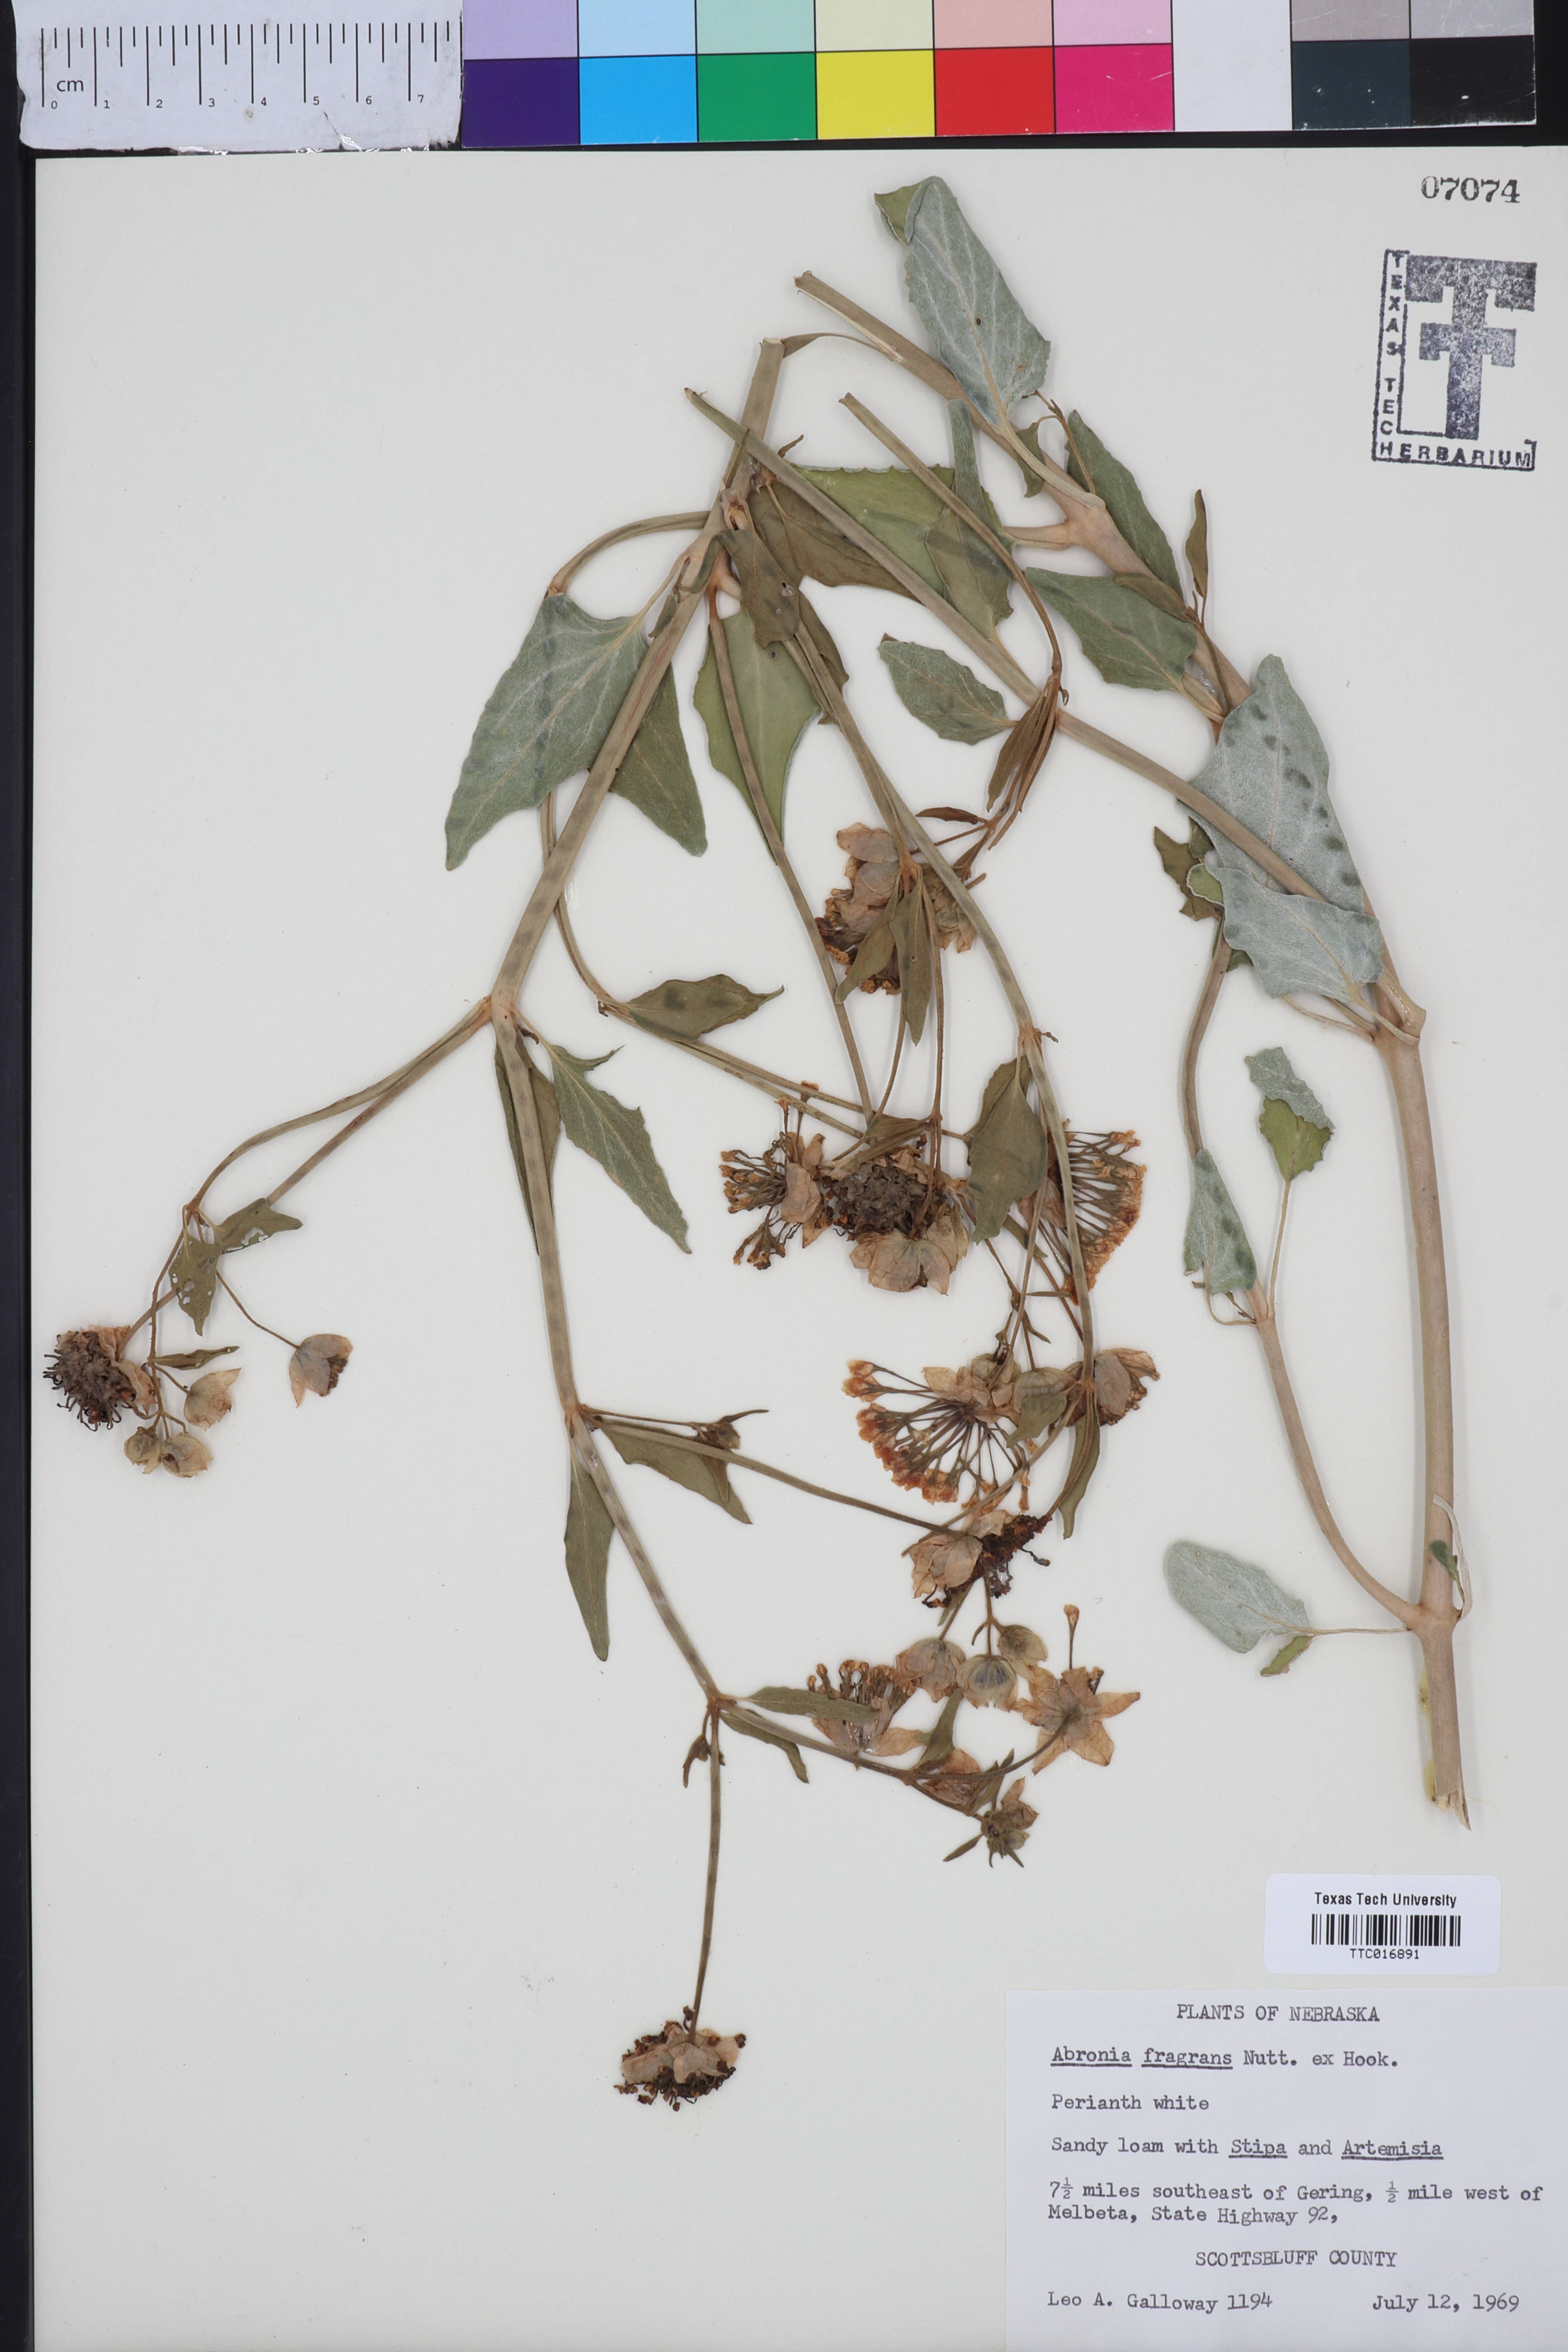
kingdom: Plantae
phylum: Tracheophyta
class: Magnoliopsida
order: Caryophyllales
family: Nyctaginaceae
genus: Abronia
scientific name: Abronia fragrans
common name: Fragrant sand-verbena
